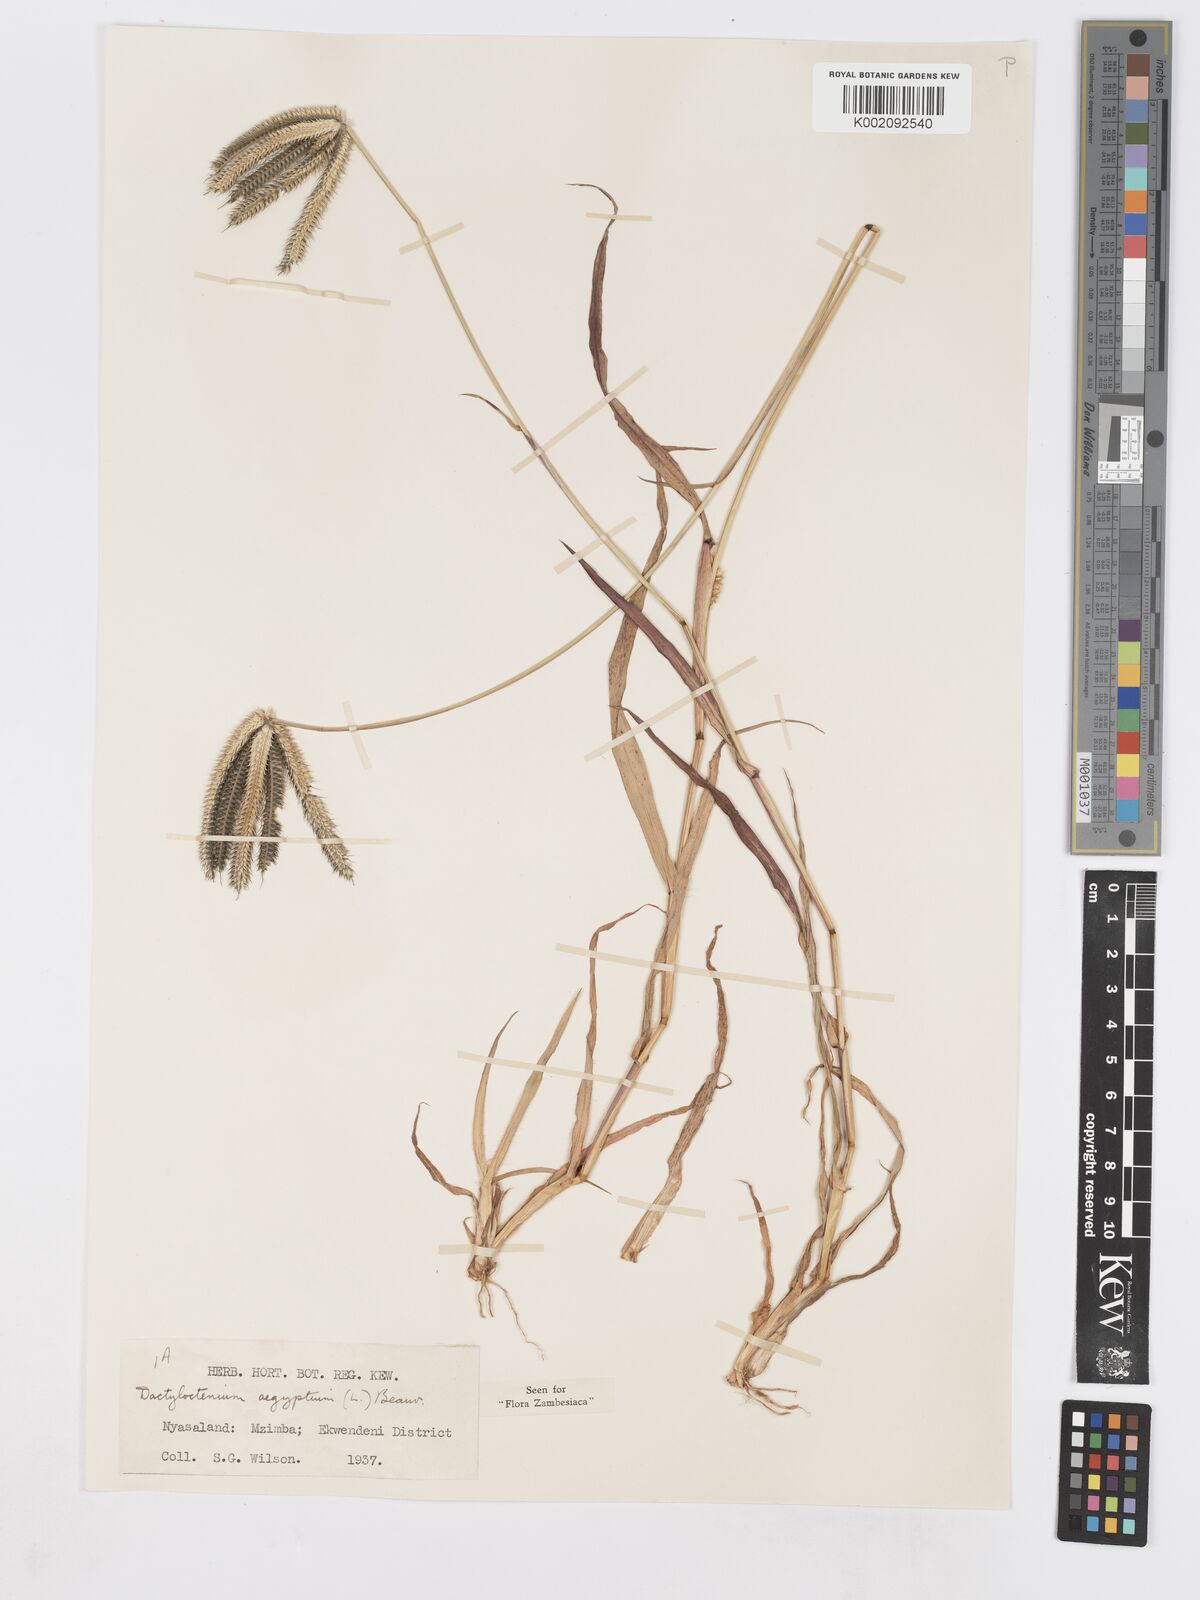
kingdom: Plantae
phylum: Tracheophyta
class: Liliopsida
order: Poales
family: Poaceae
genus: Dactyloctenium
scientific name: Dactyloctenium aegyptium
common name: Egyptian grass
